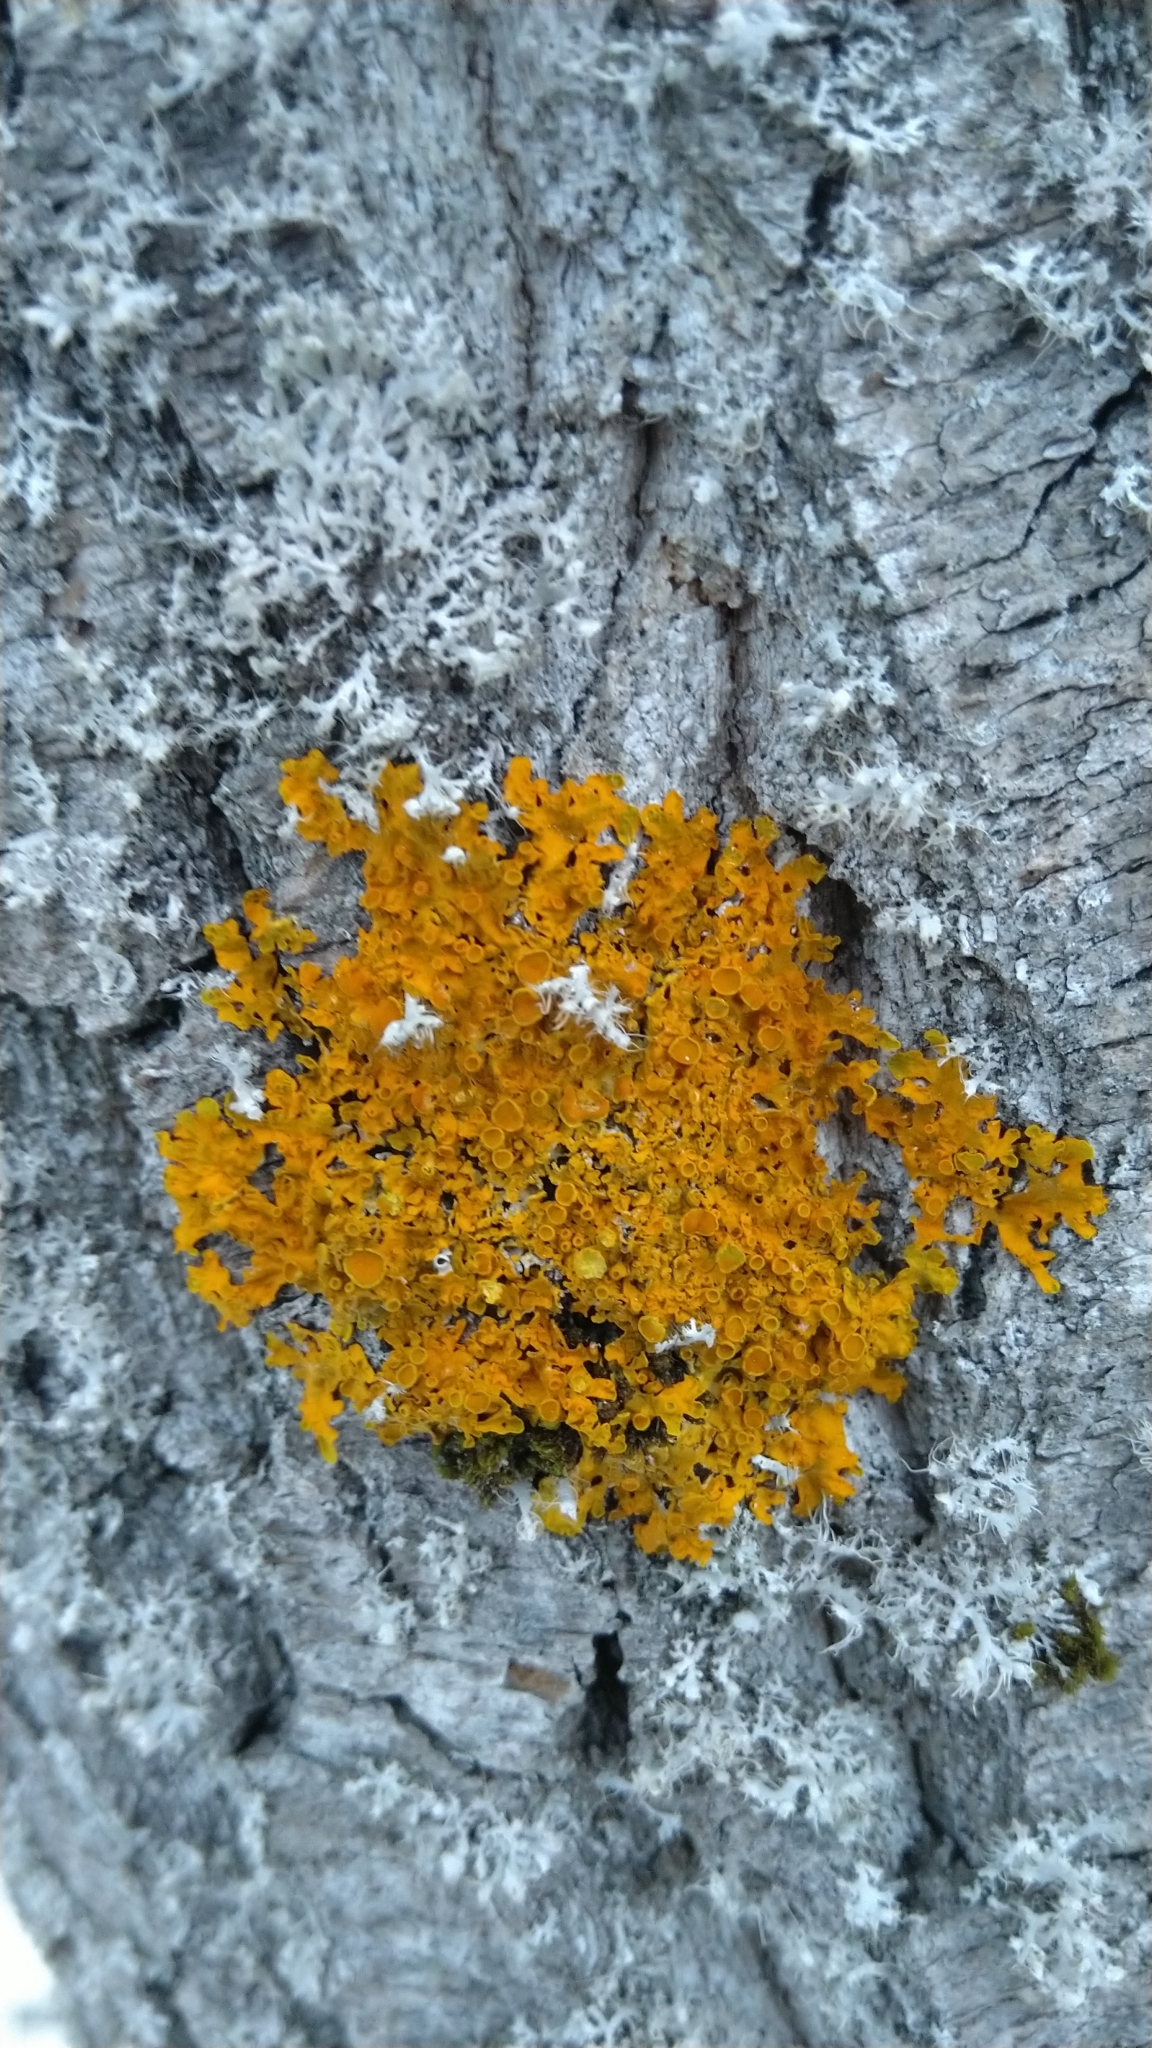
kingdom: Fungi
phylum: Ascomycota
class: Lecanoromycetes
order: Teloschistales
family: Teloschistaceae
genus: Xanthoria
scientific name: Xanthoria parietina
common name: Common orange lichen
